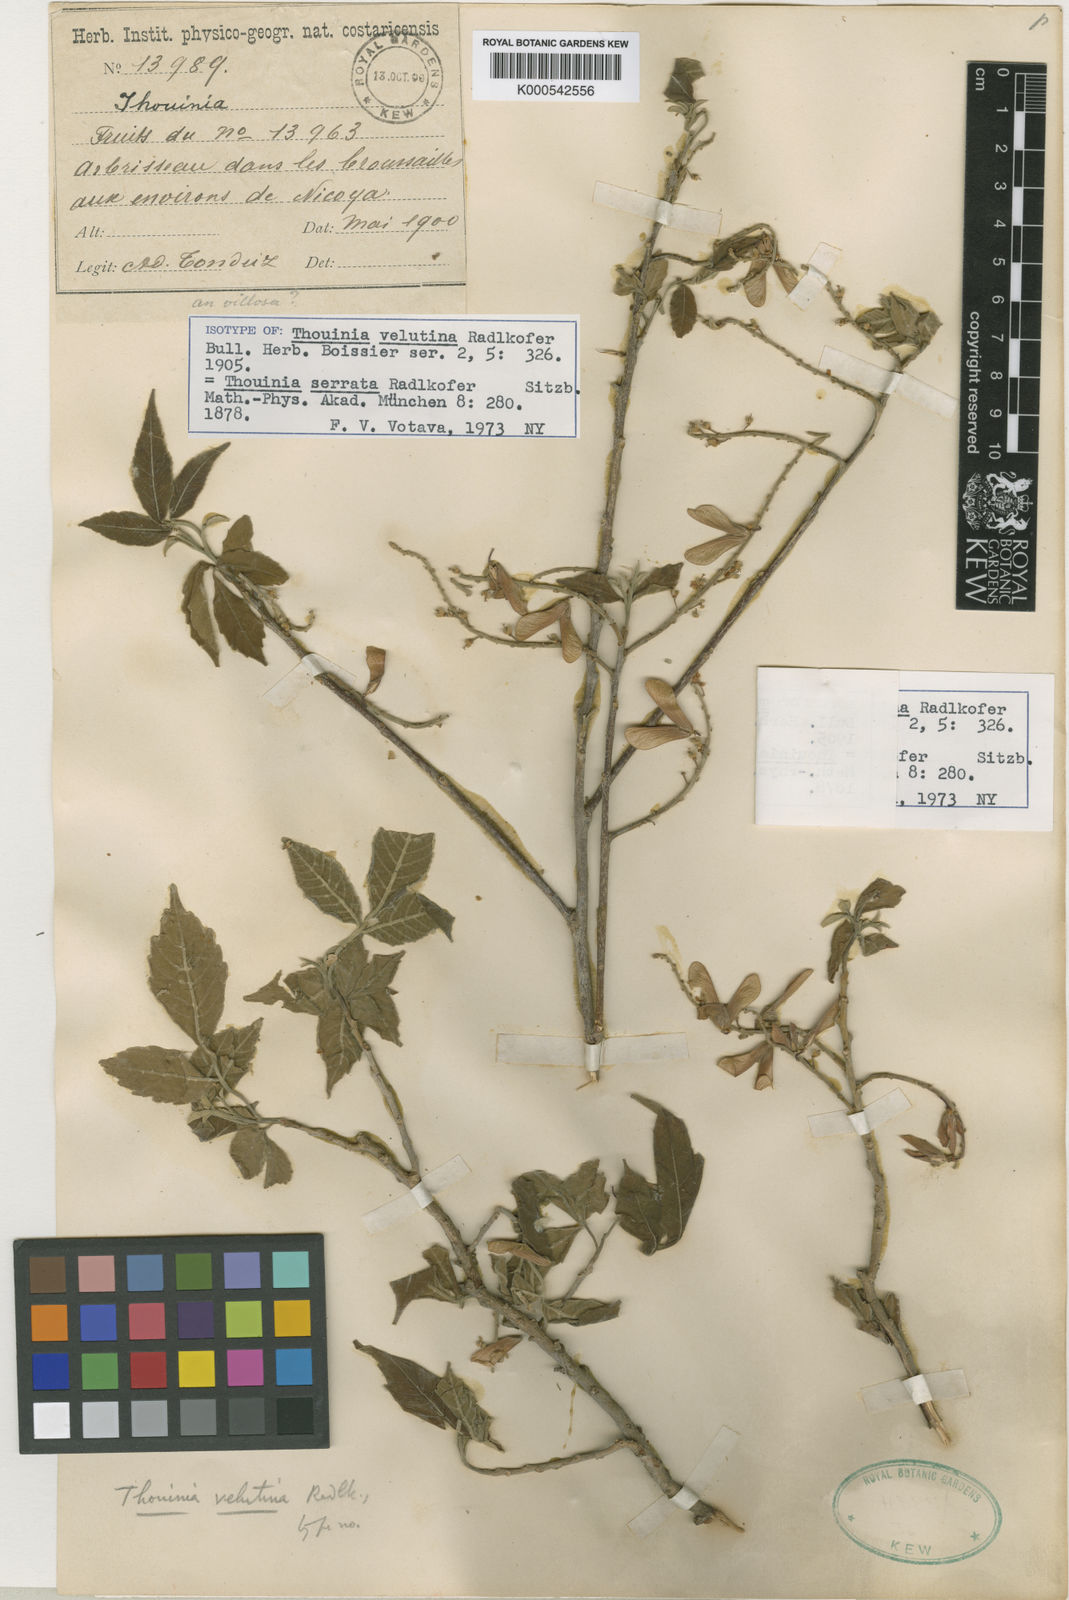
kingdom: Plantae
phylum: Tracheophyta
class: Magnoliopsida
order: Sapindales
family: Sapindaceae
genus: Thouinia
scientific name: Thouinia serrata
